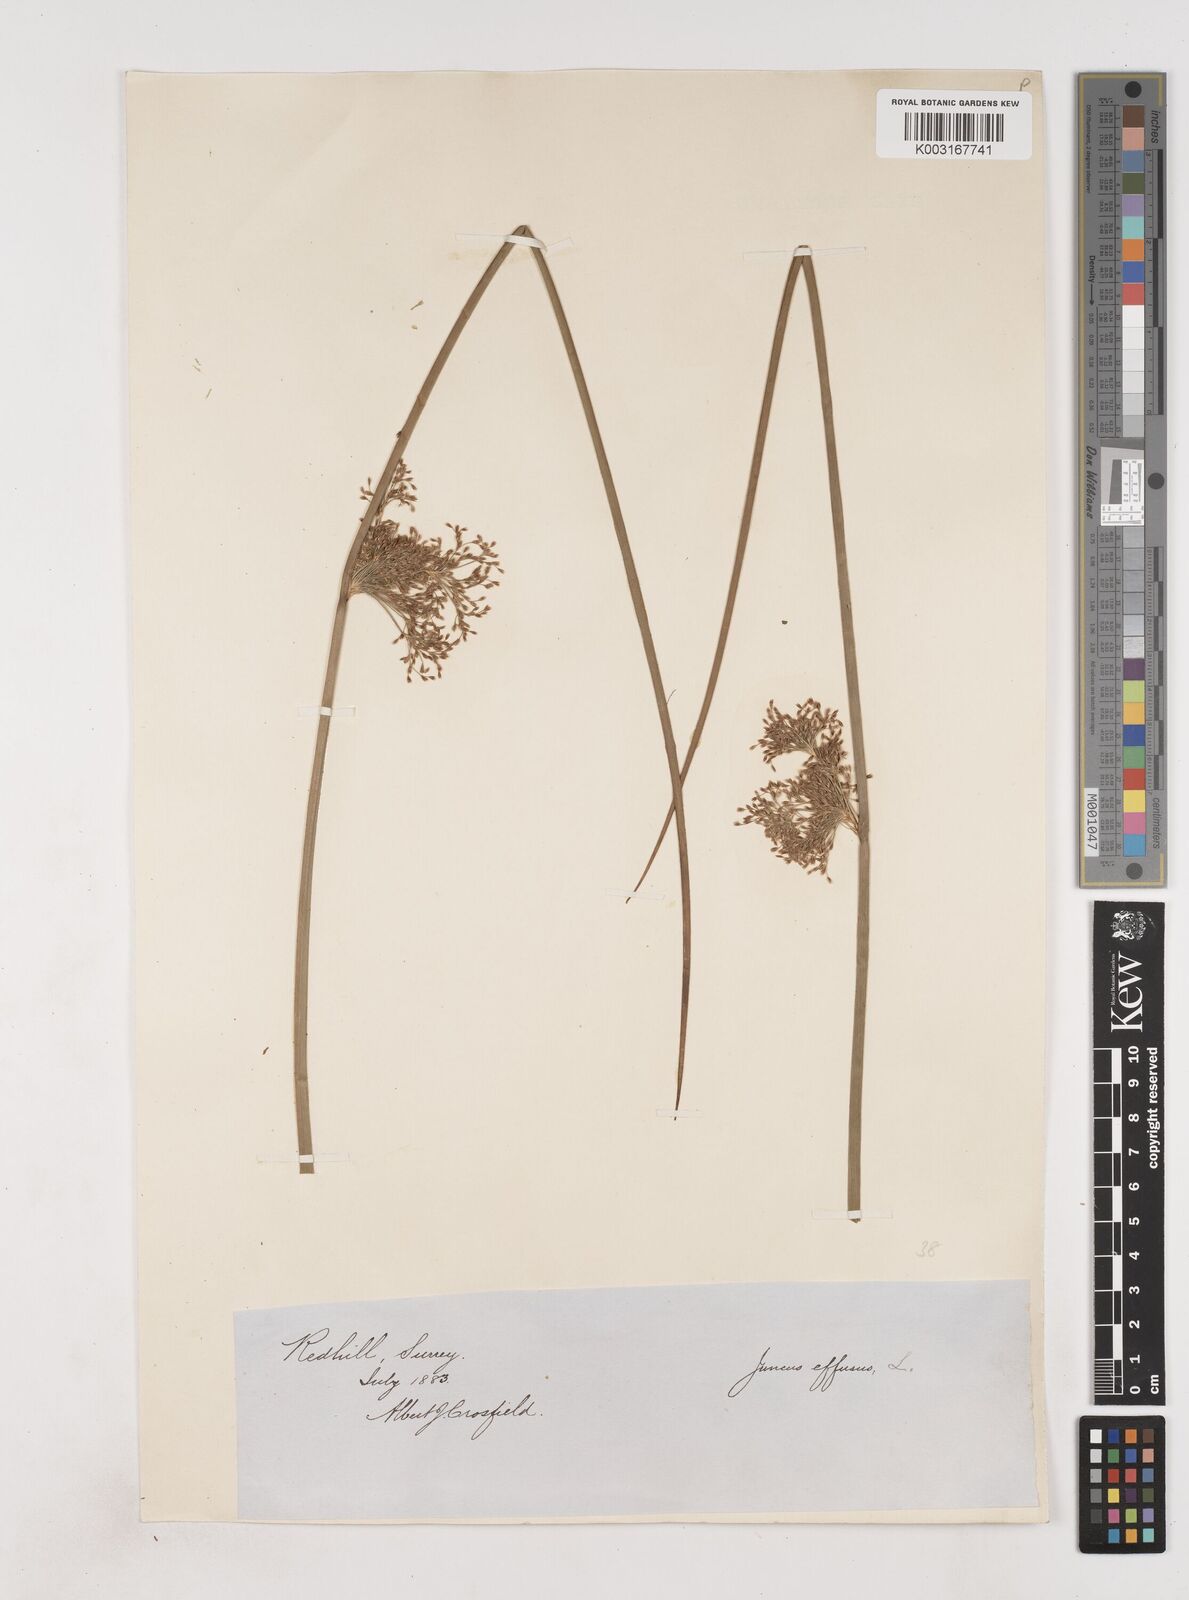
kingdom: Plantae
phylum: Tracheophyta
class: Liliopsida
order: Poales
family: Juncaceae
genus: Juncus
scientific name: Juncus effusus
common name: Soft rush
